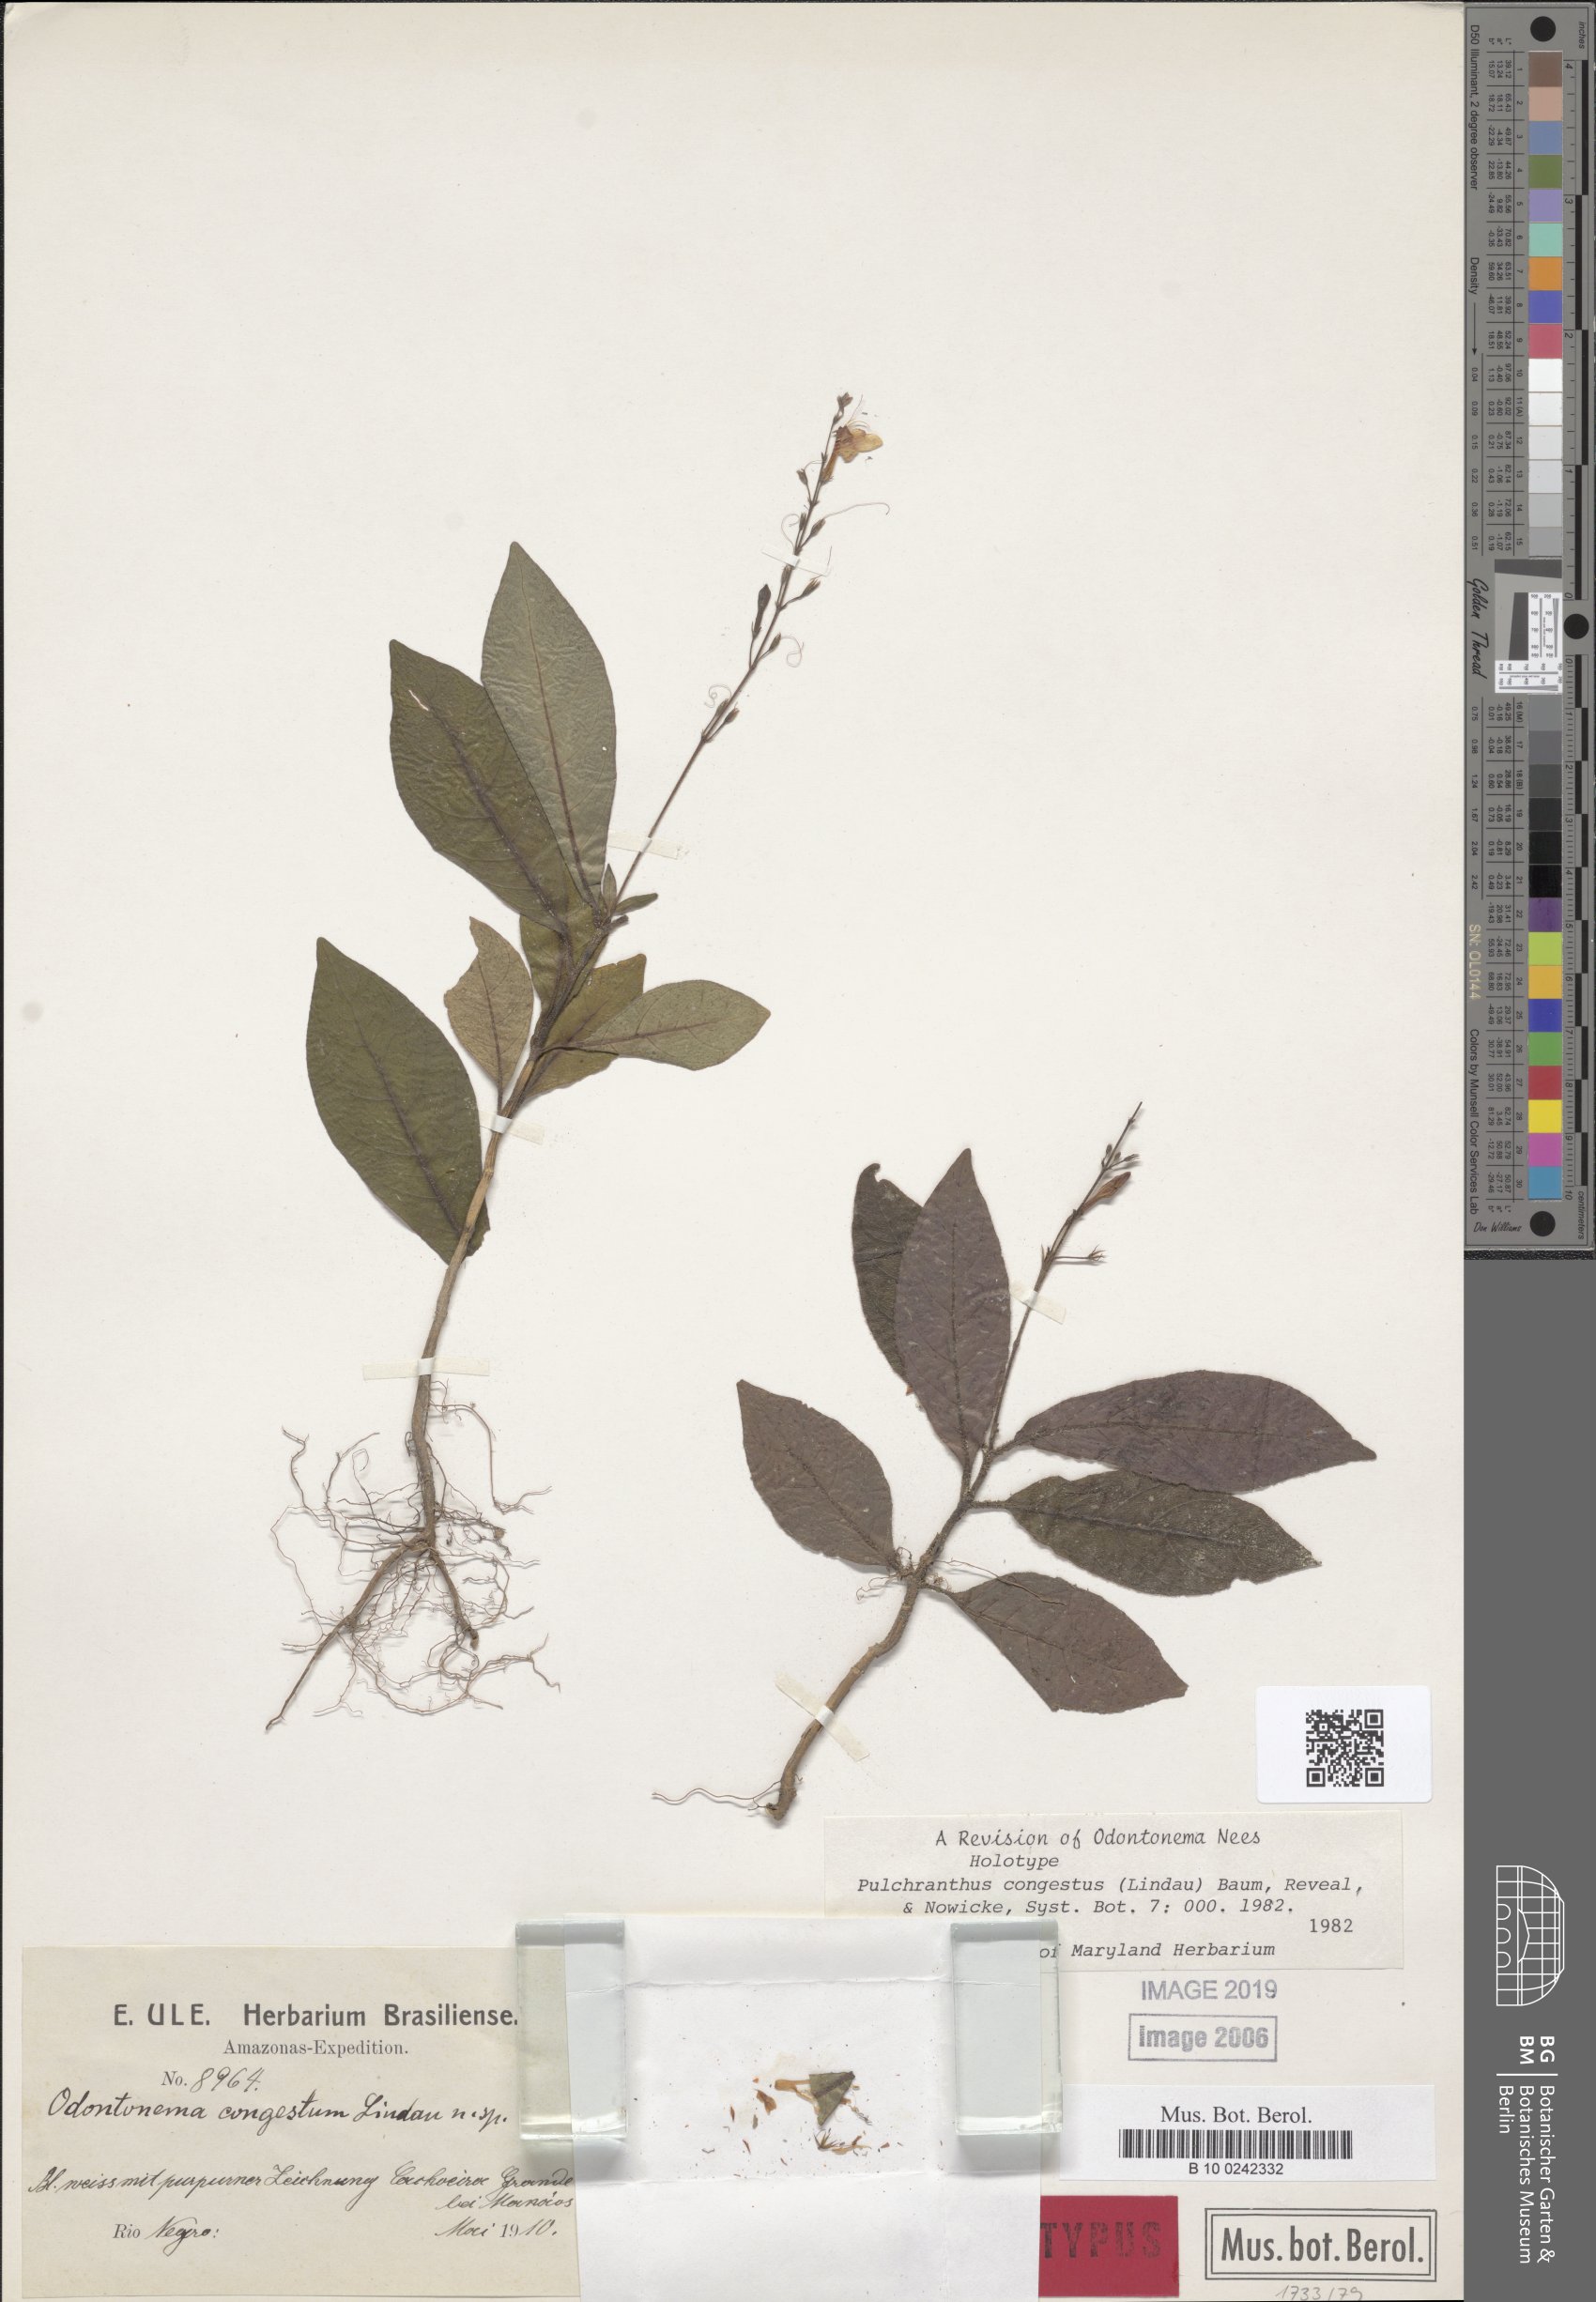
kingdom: Plantae
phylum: Tracheophyta
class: Magnoliopsida
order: Lamiales
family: Acanthaceae
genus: Pulchranthus
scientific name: Pulchranthus congestus
